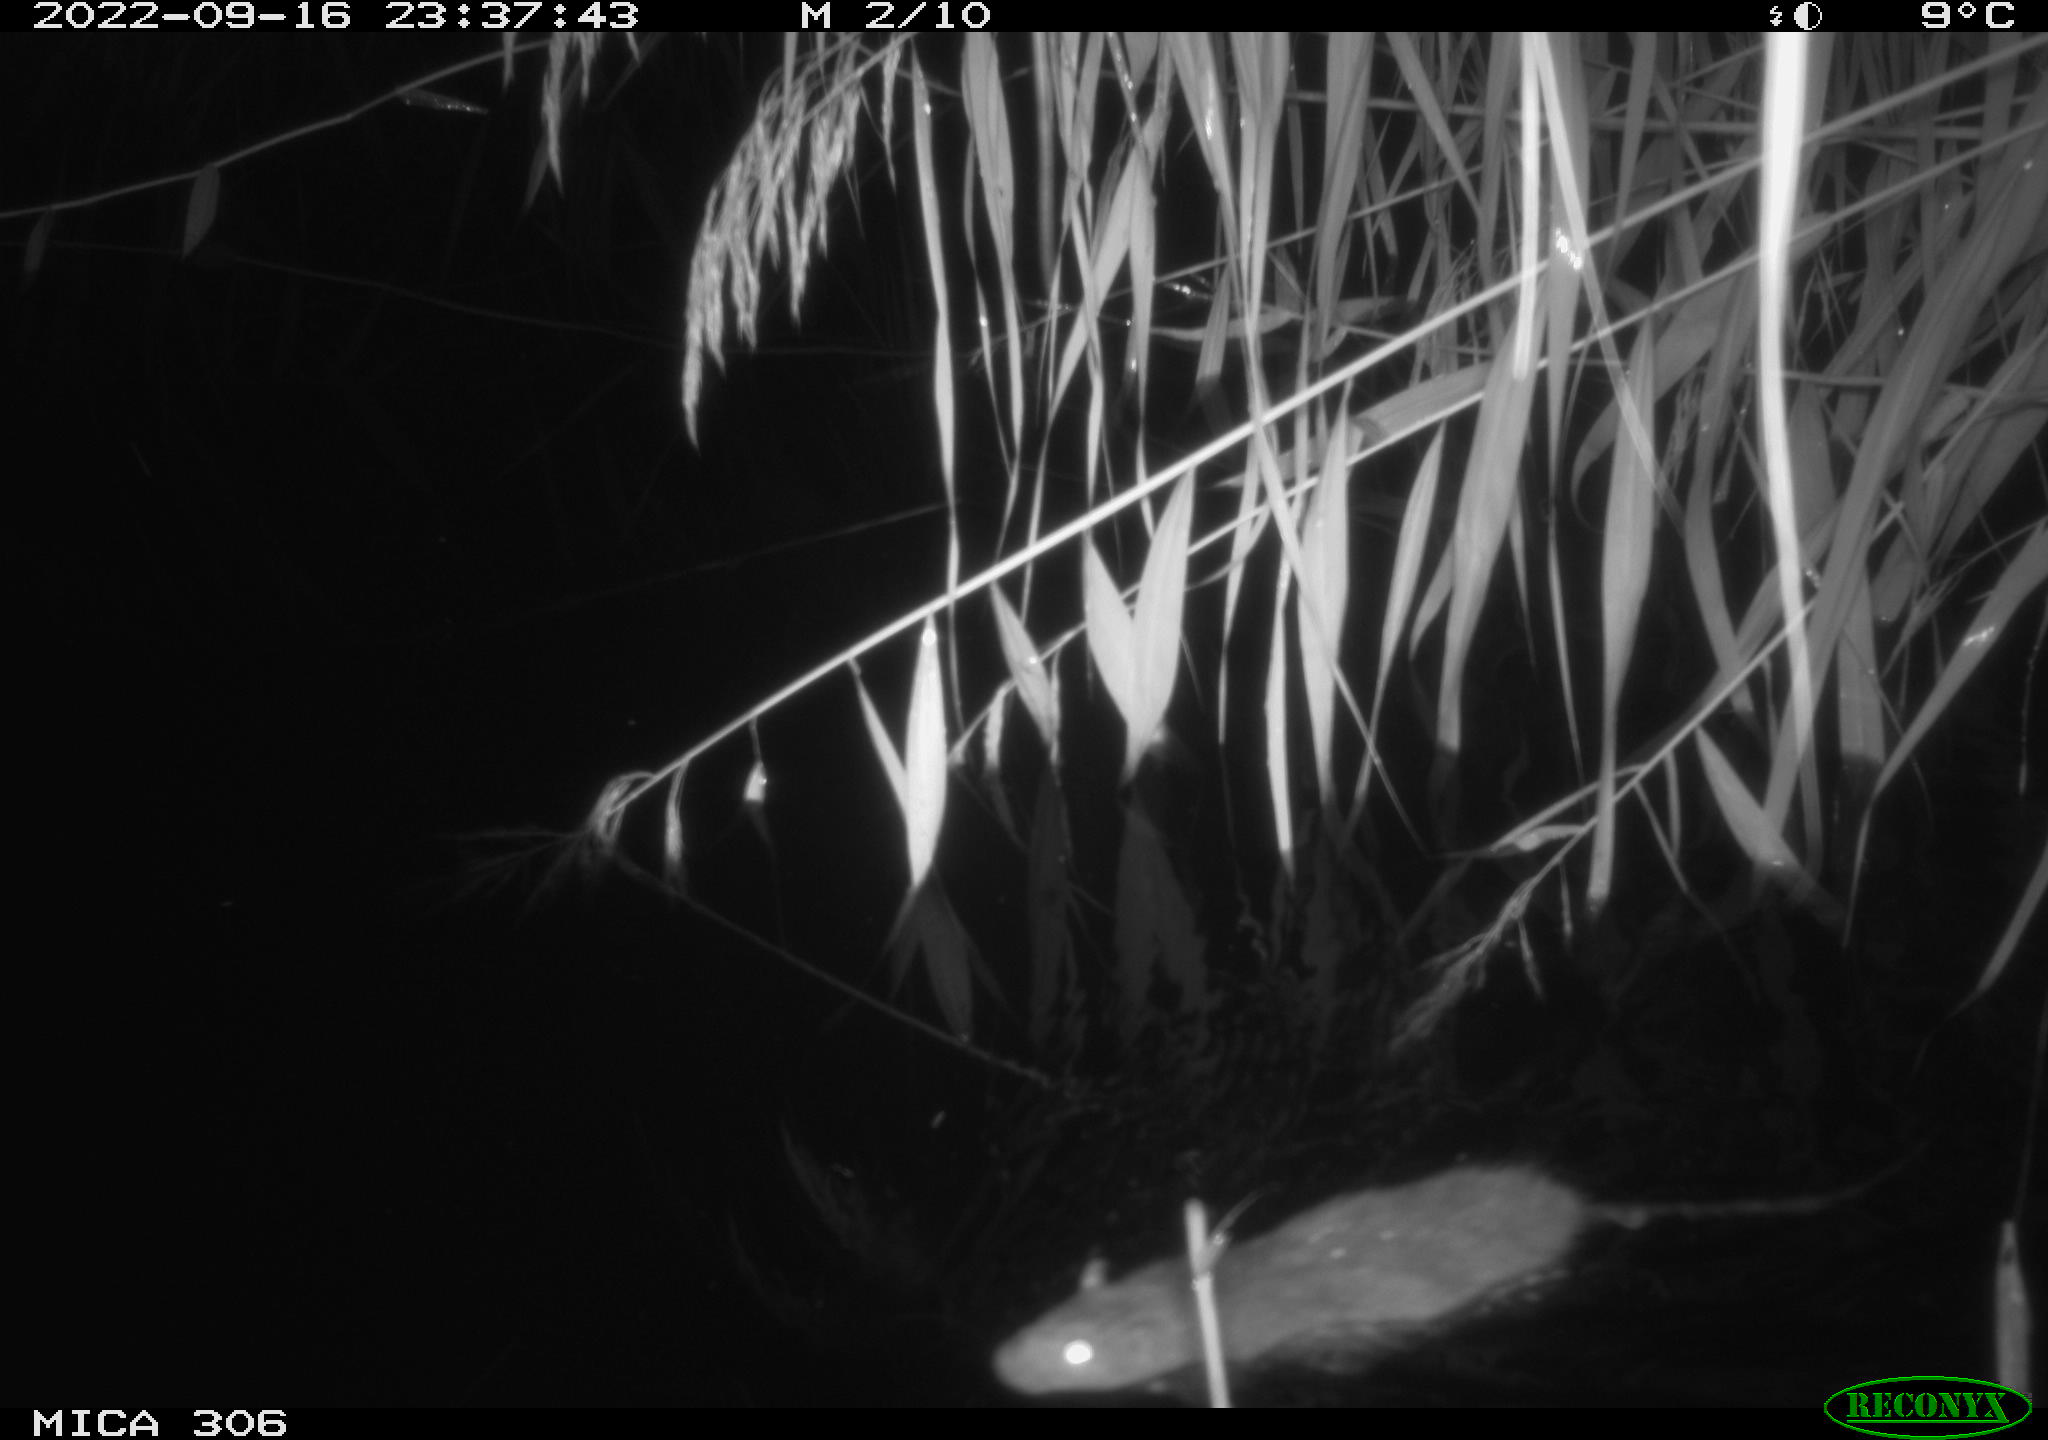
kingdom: Animalia
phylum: Chordata
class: Mammalia
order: Rodentia
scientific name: Rodentia
